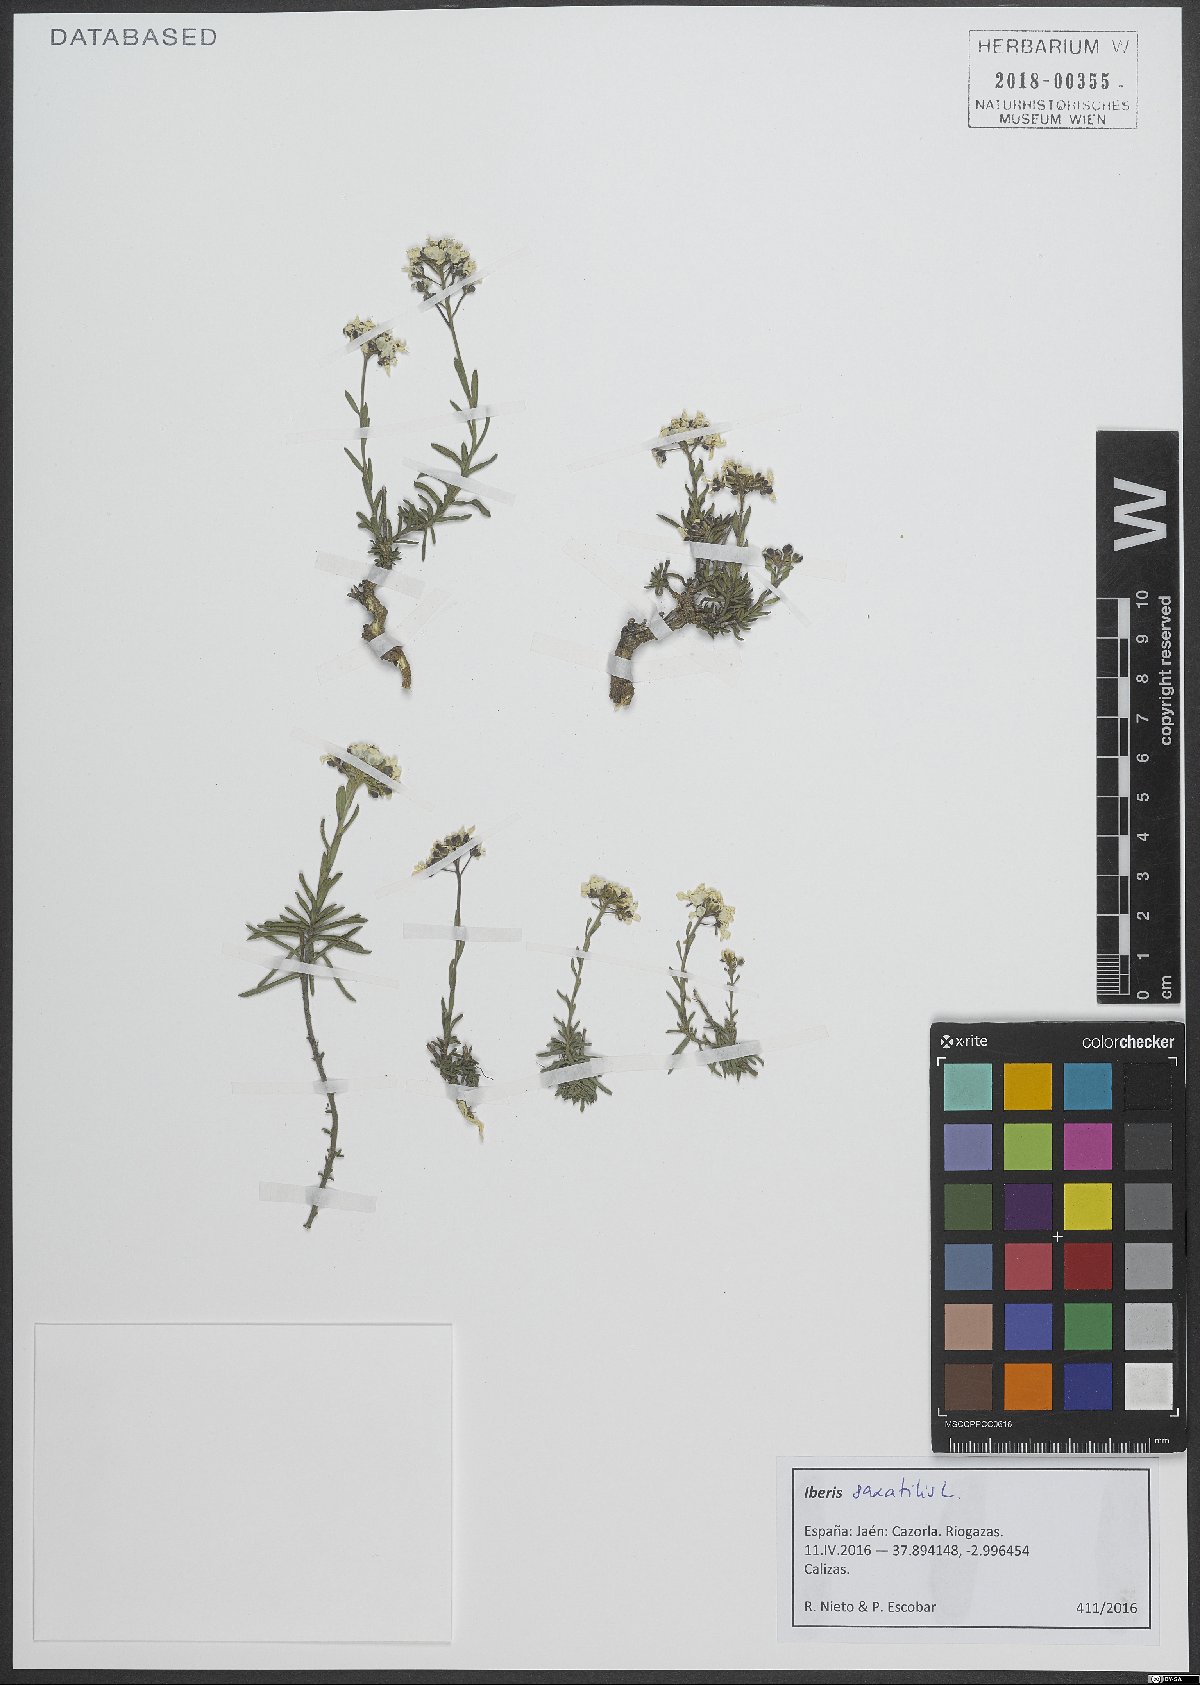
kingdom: Plantae
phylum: Tracheophyta
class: Magnoliopsida
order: Brassicales
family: Brassicaceae
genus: Iberis
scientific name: Iberis saxatilis
